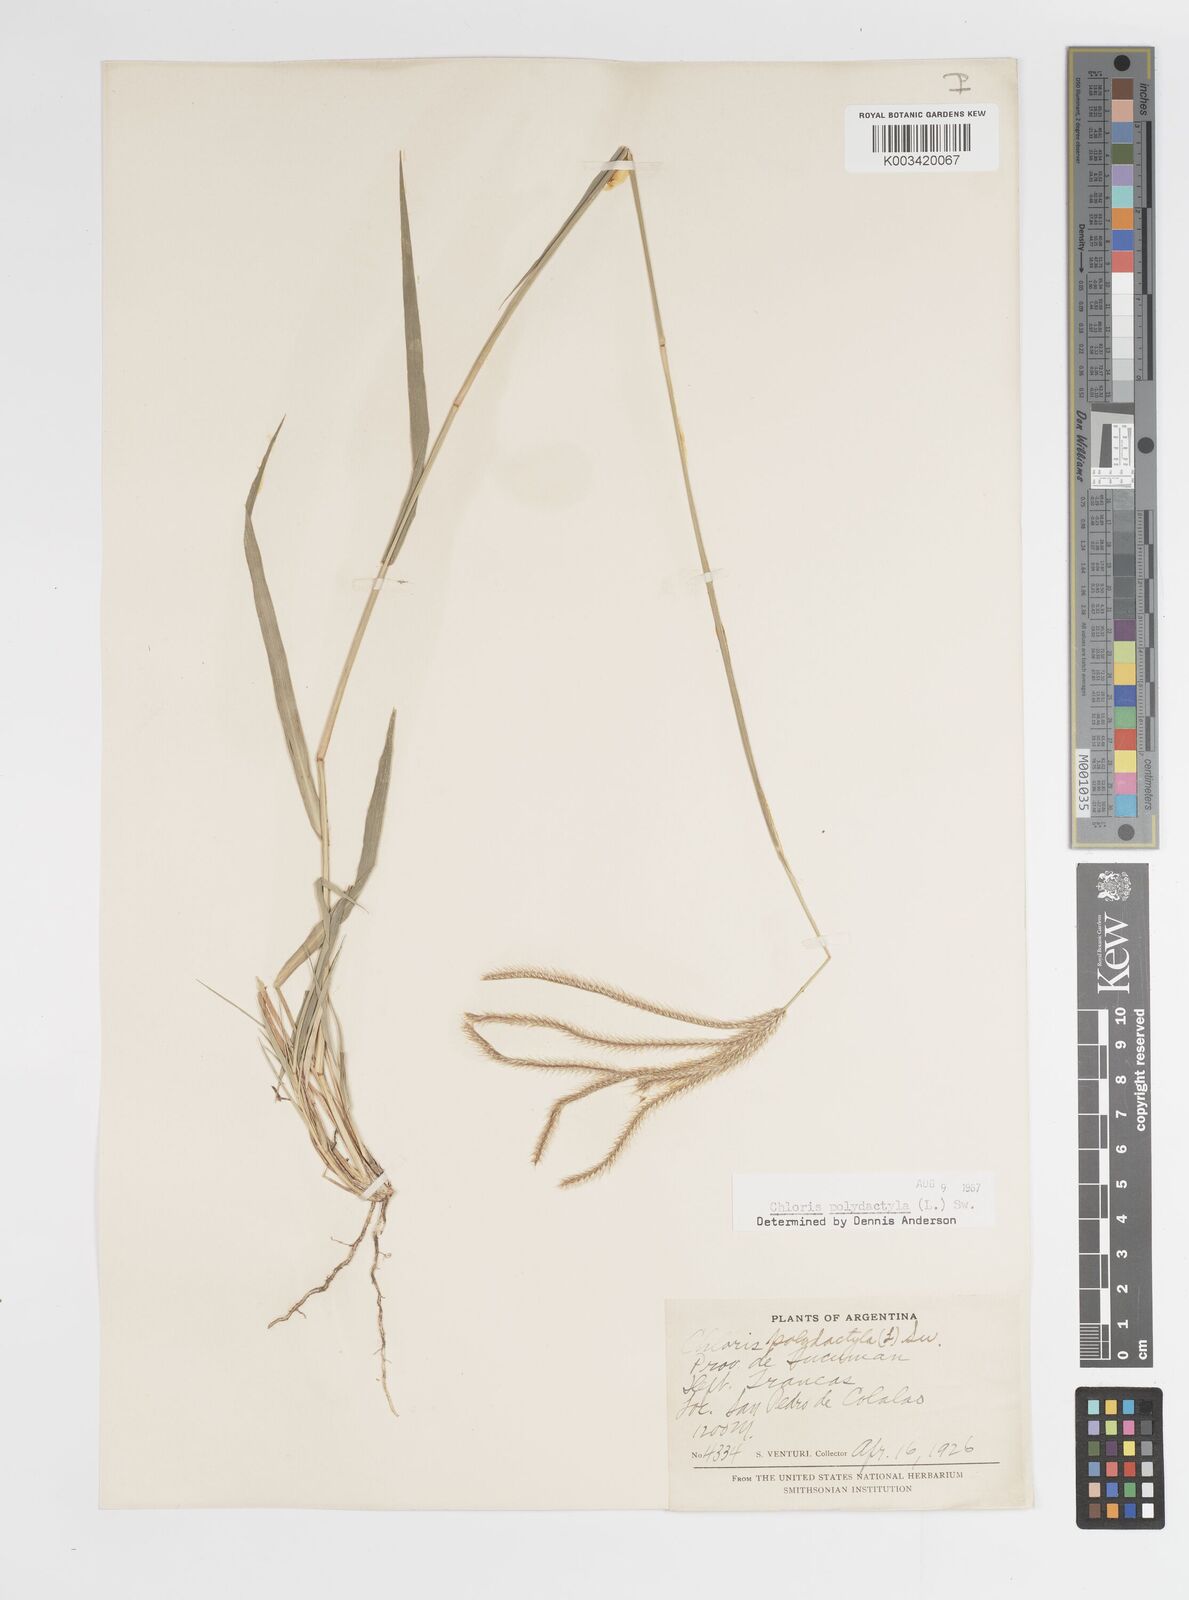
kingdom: Plantae
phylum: Tracheophyta
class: Liliopsida
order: Poales
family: Poaceae
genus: Stapfochloa
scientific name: Stapfochloa canterae
